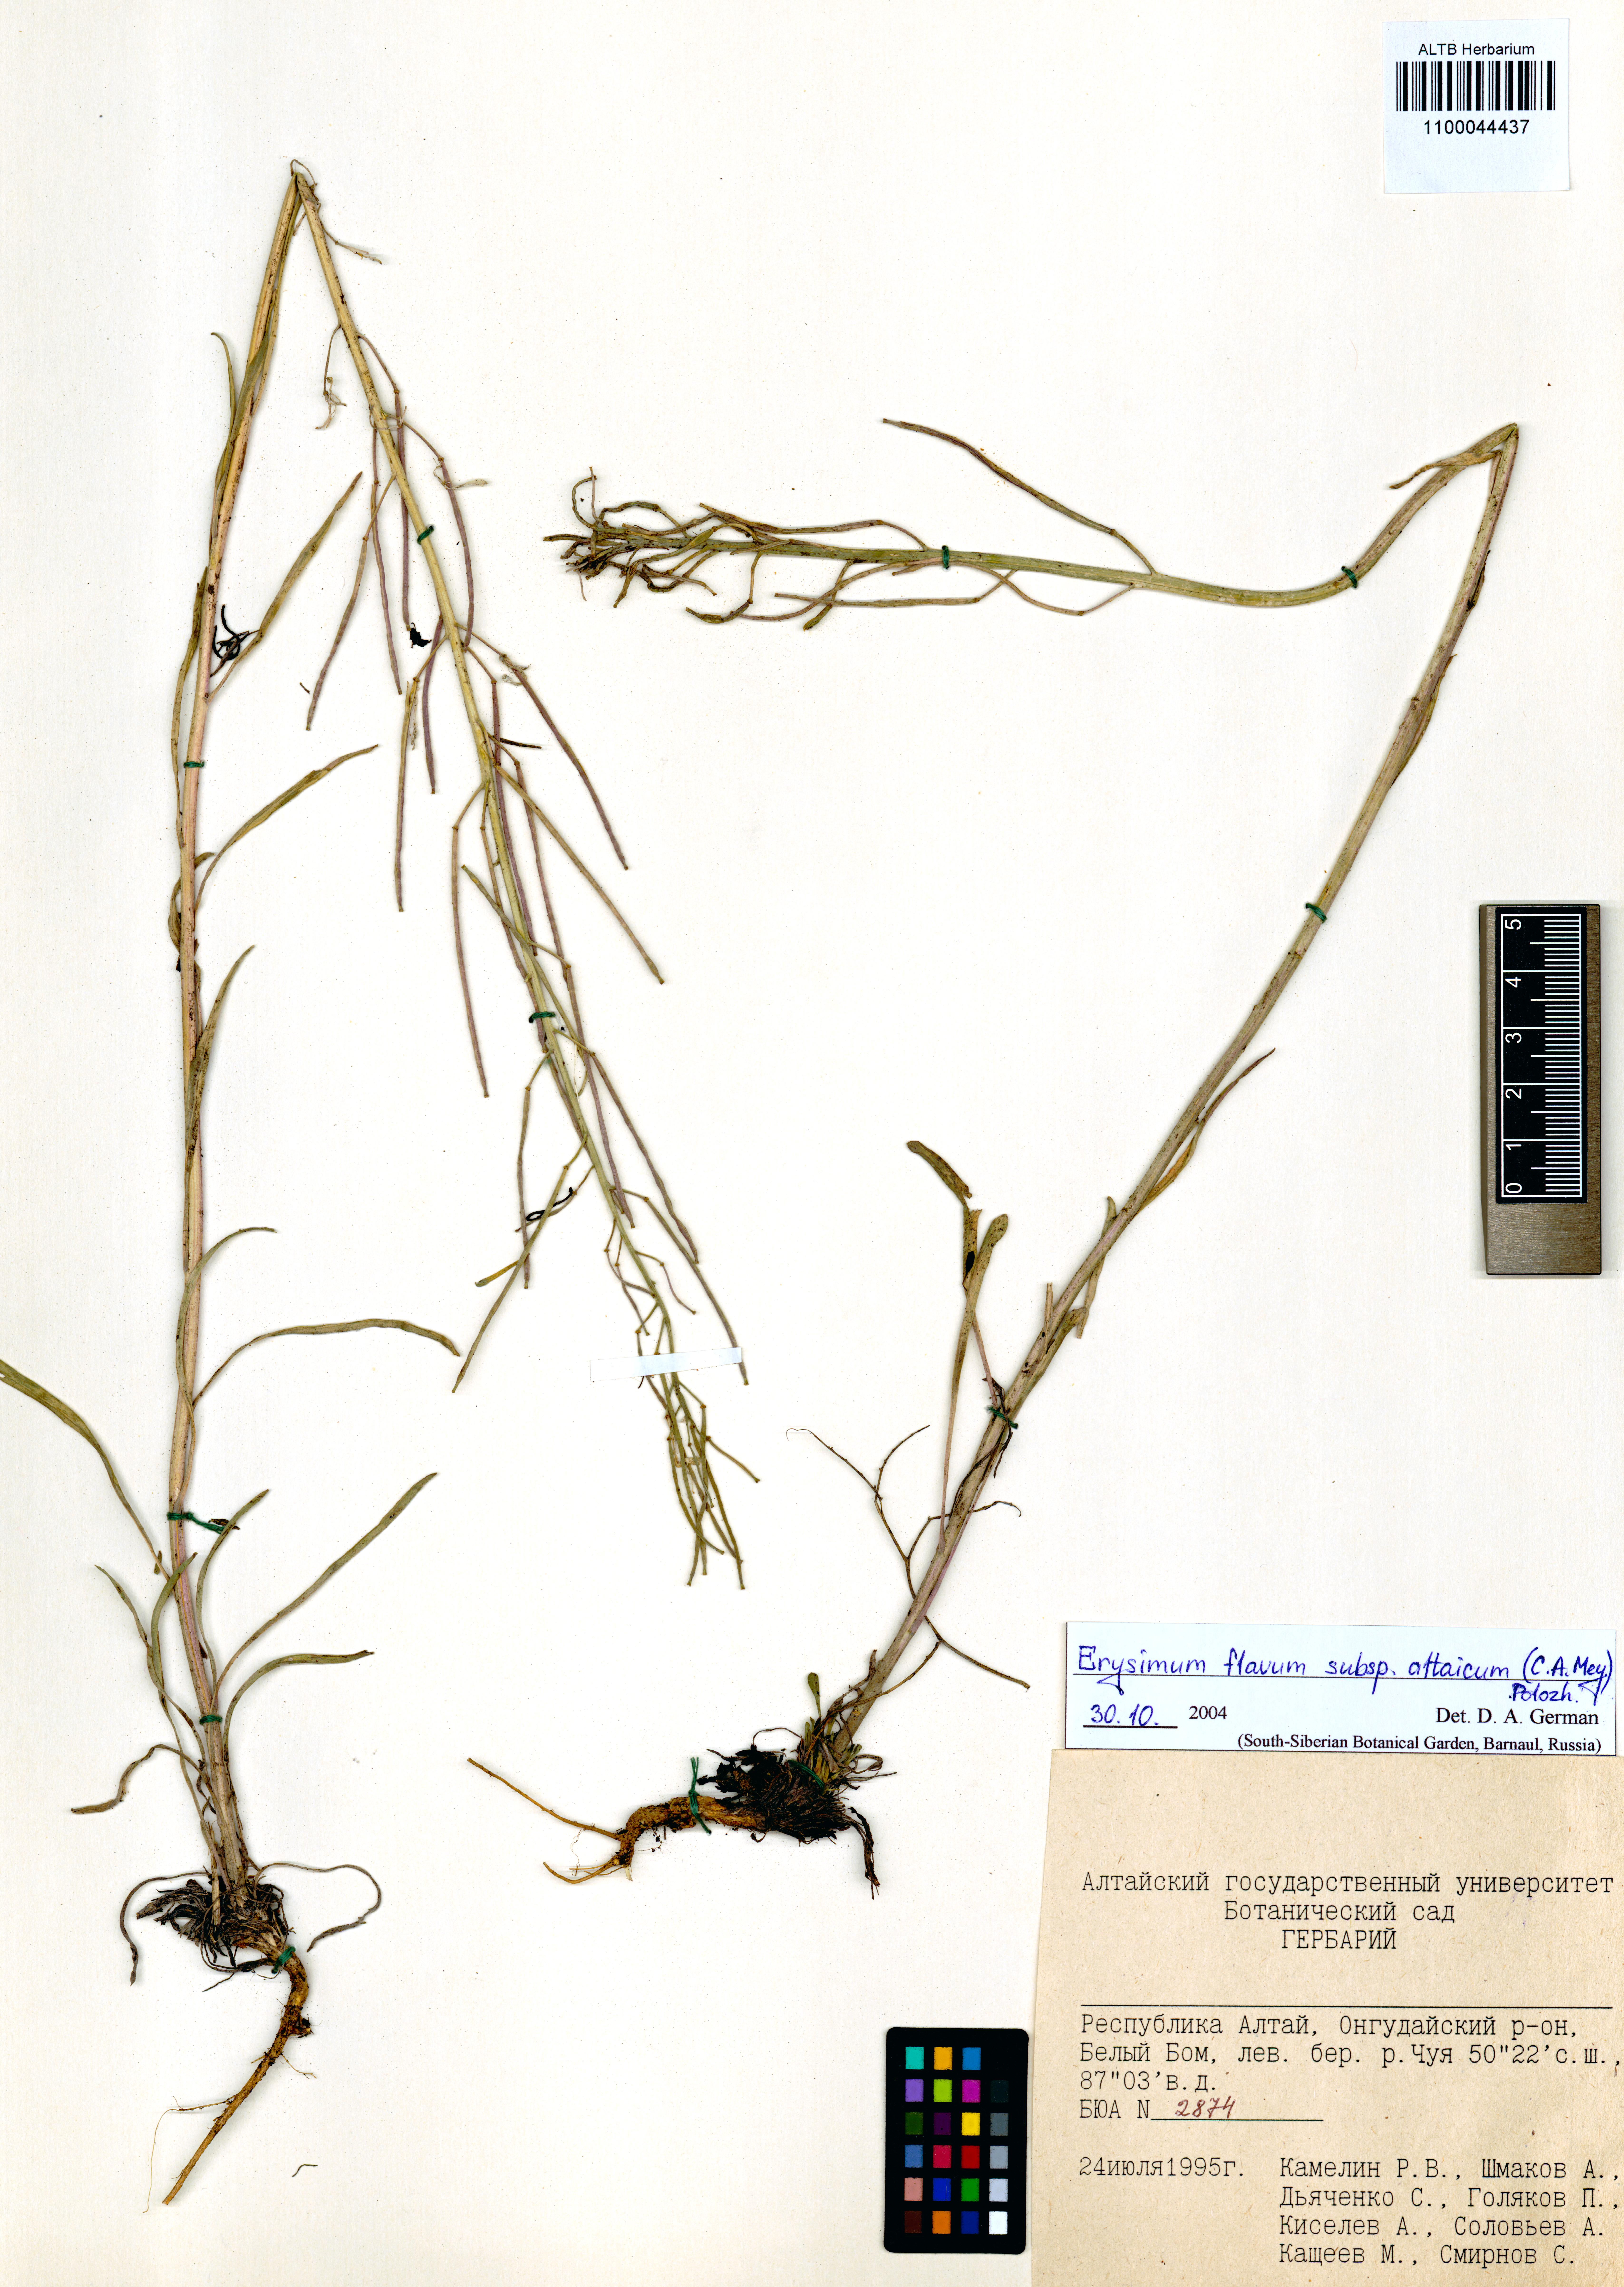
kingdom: Plantae
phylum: Tracheophyta
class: Magnoliopsida
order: Brassicales
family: Brassicaceae
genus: Erysimum
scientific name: Erysimum flavum
